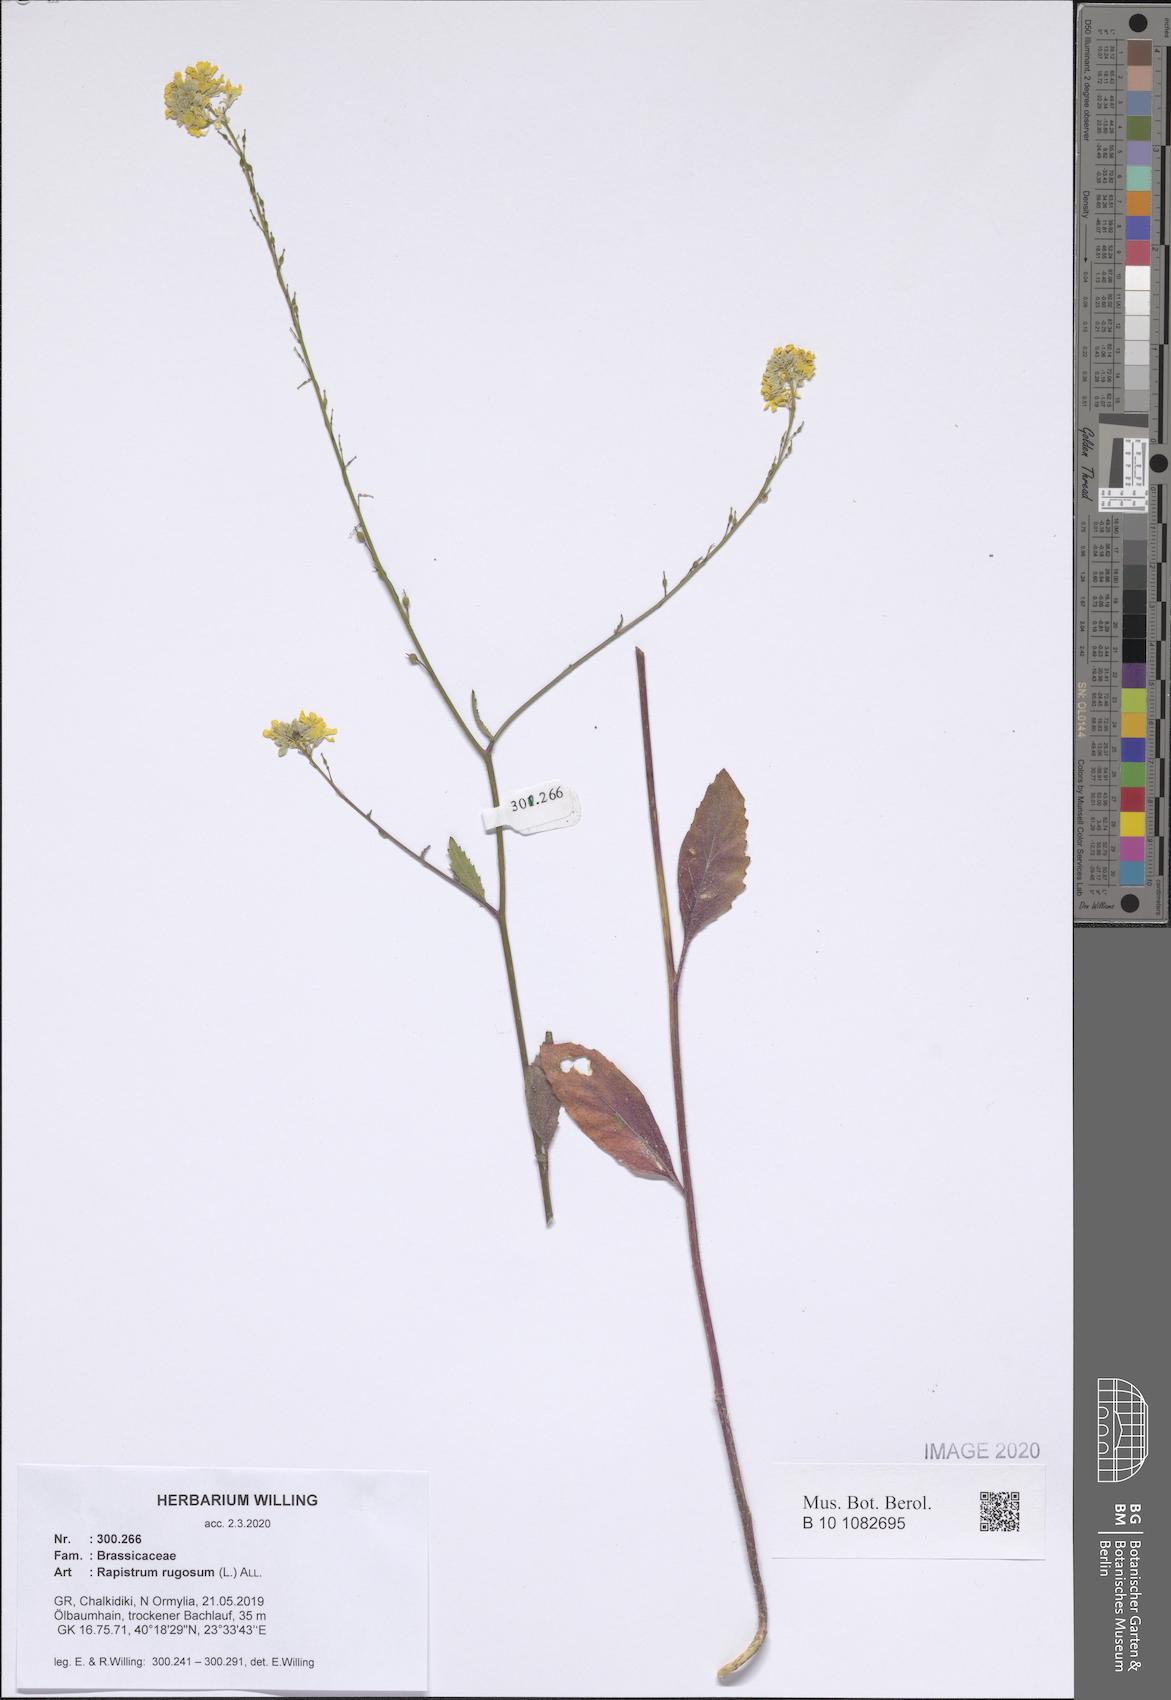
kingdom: Plantae
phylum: Tracheophyta
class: Magnoliopsida
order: Brassicales
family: Brassicaceae
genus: Rapistrum
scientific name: Rapistrum rugosum
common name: Annual bastardcabbage
